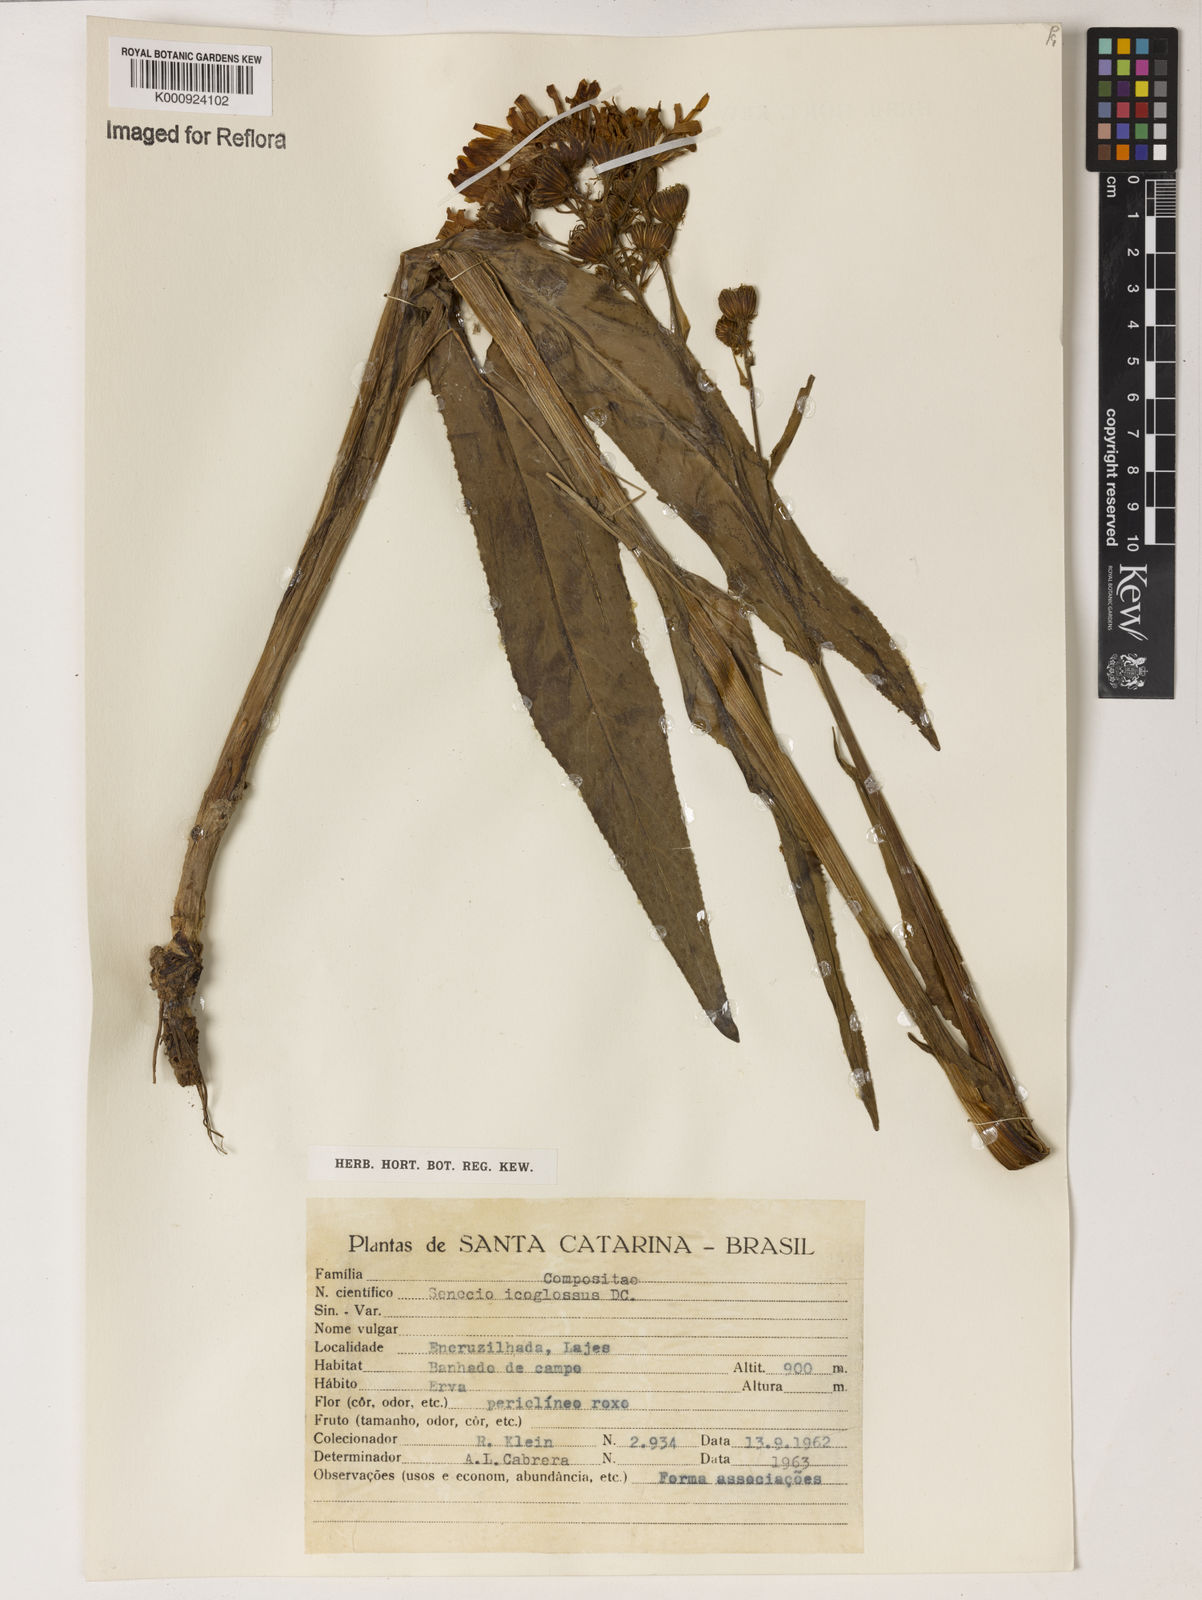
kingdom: Plantae
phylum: Tracheophyta
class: Magnoliopsida
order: Asterales
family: Asteraceae
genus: Senecio
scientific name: Senecio icoglossus
